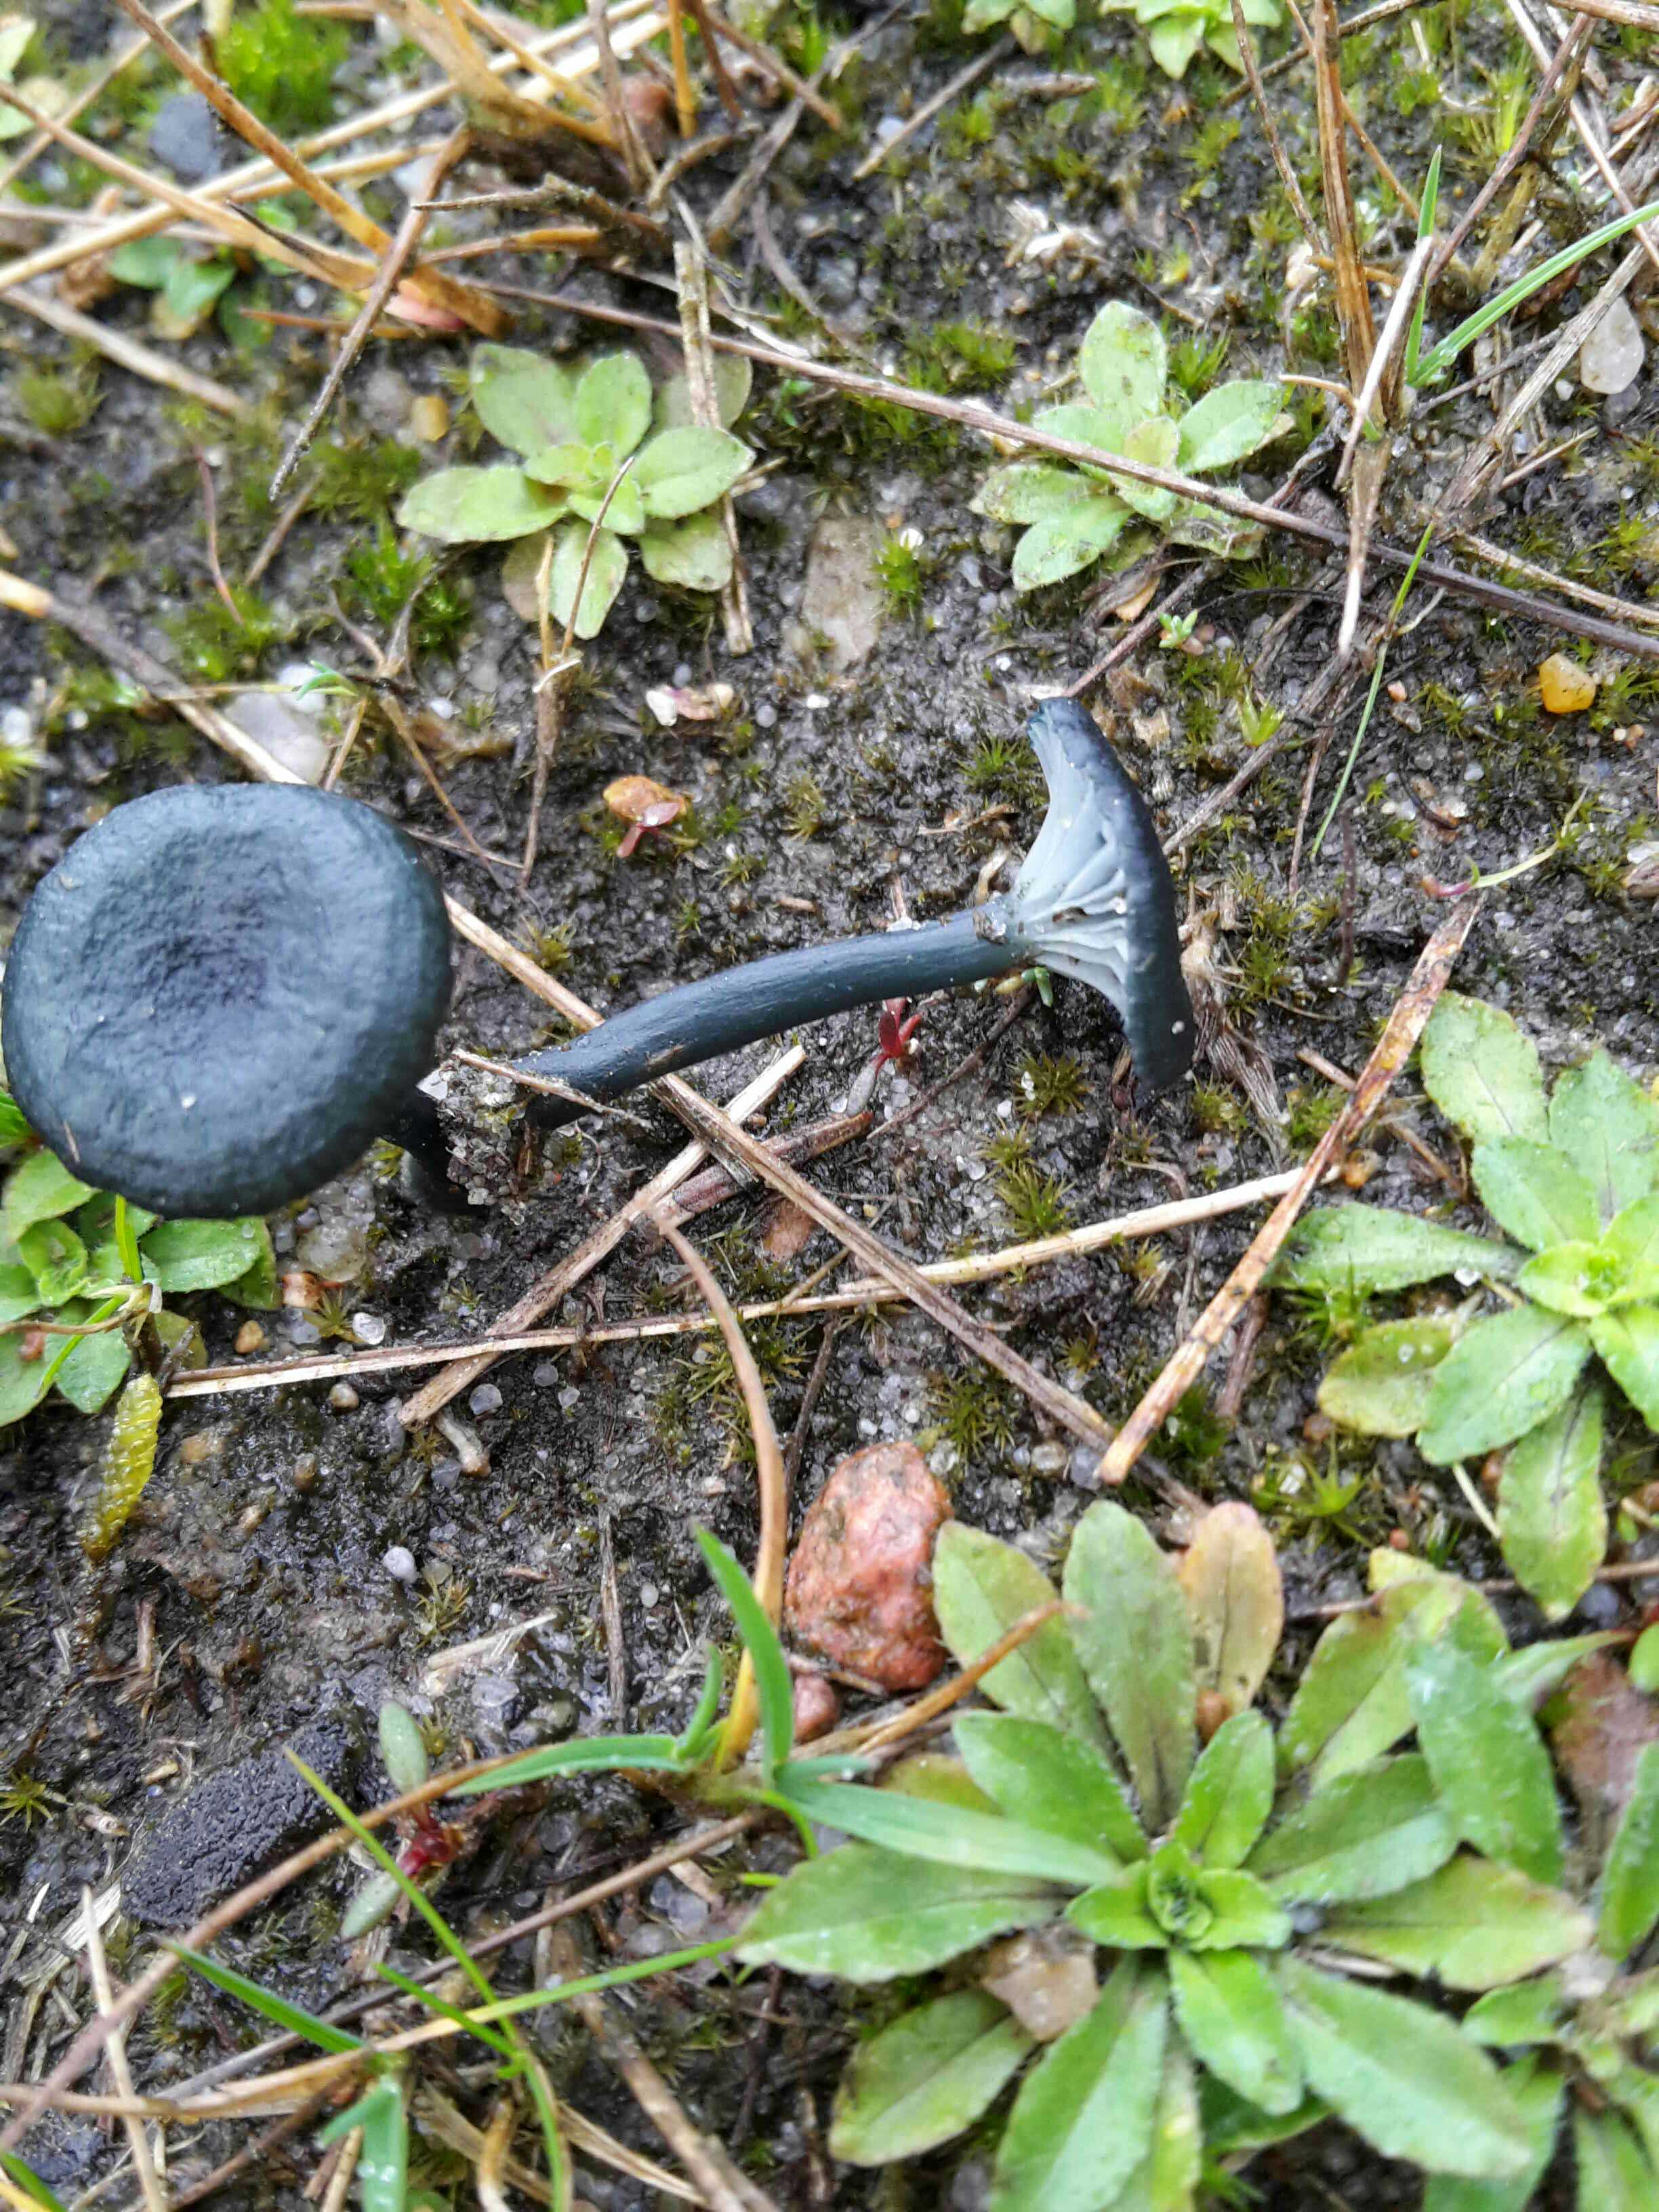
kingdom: Fungi
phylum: Basidiomycota
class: Agaricomycetes
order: Agaricales
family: Hygrophoraceae
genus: Arrhenia
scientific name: Arrhenia chlorocyanea
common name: blågrøn fontænehat
